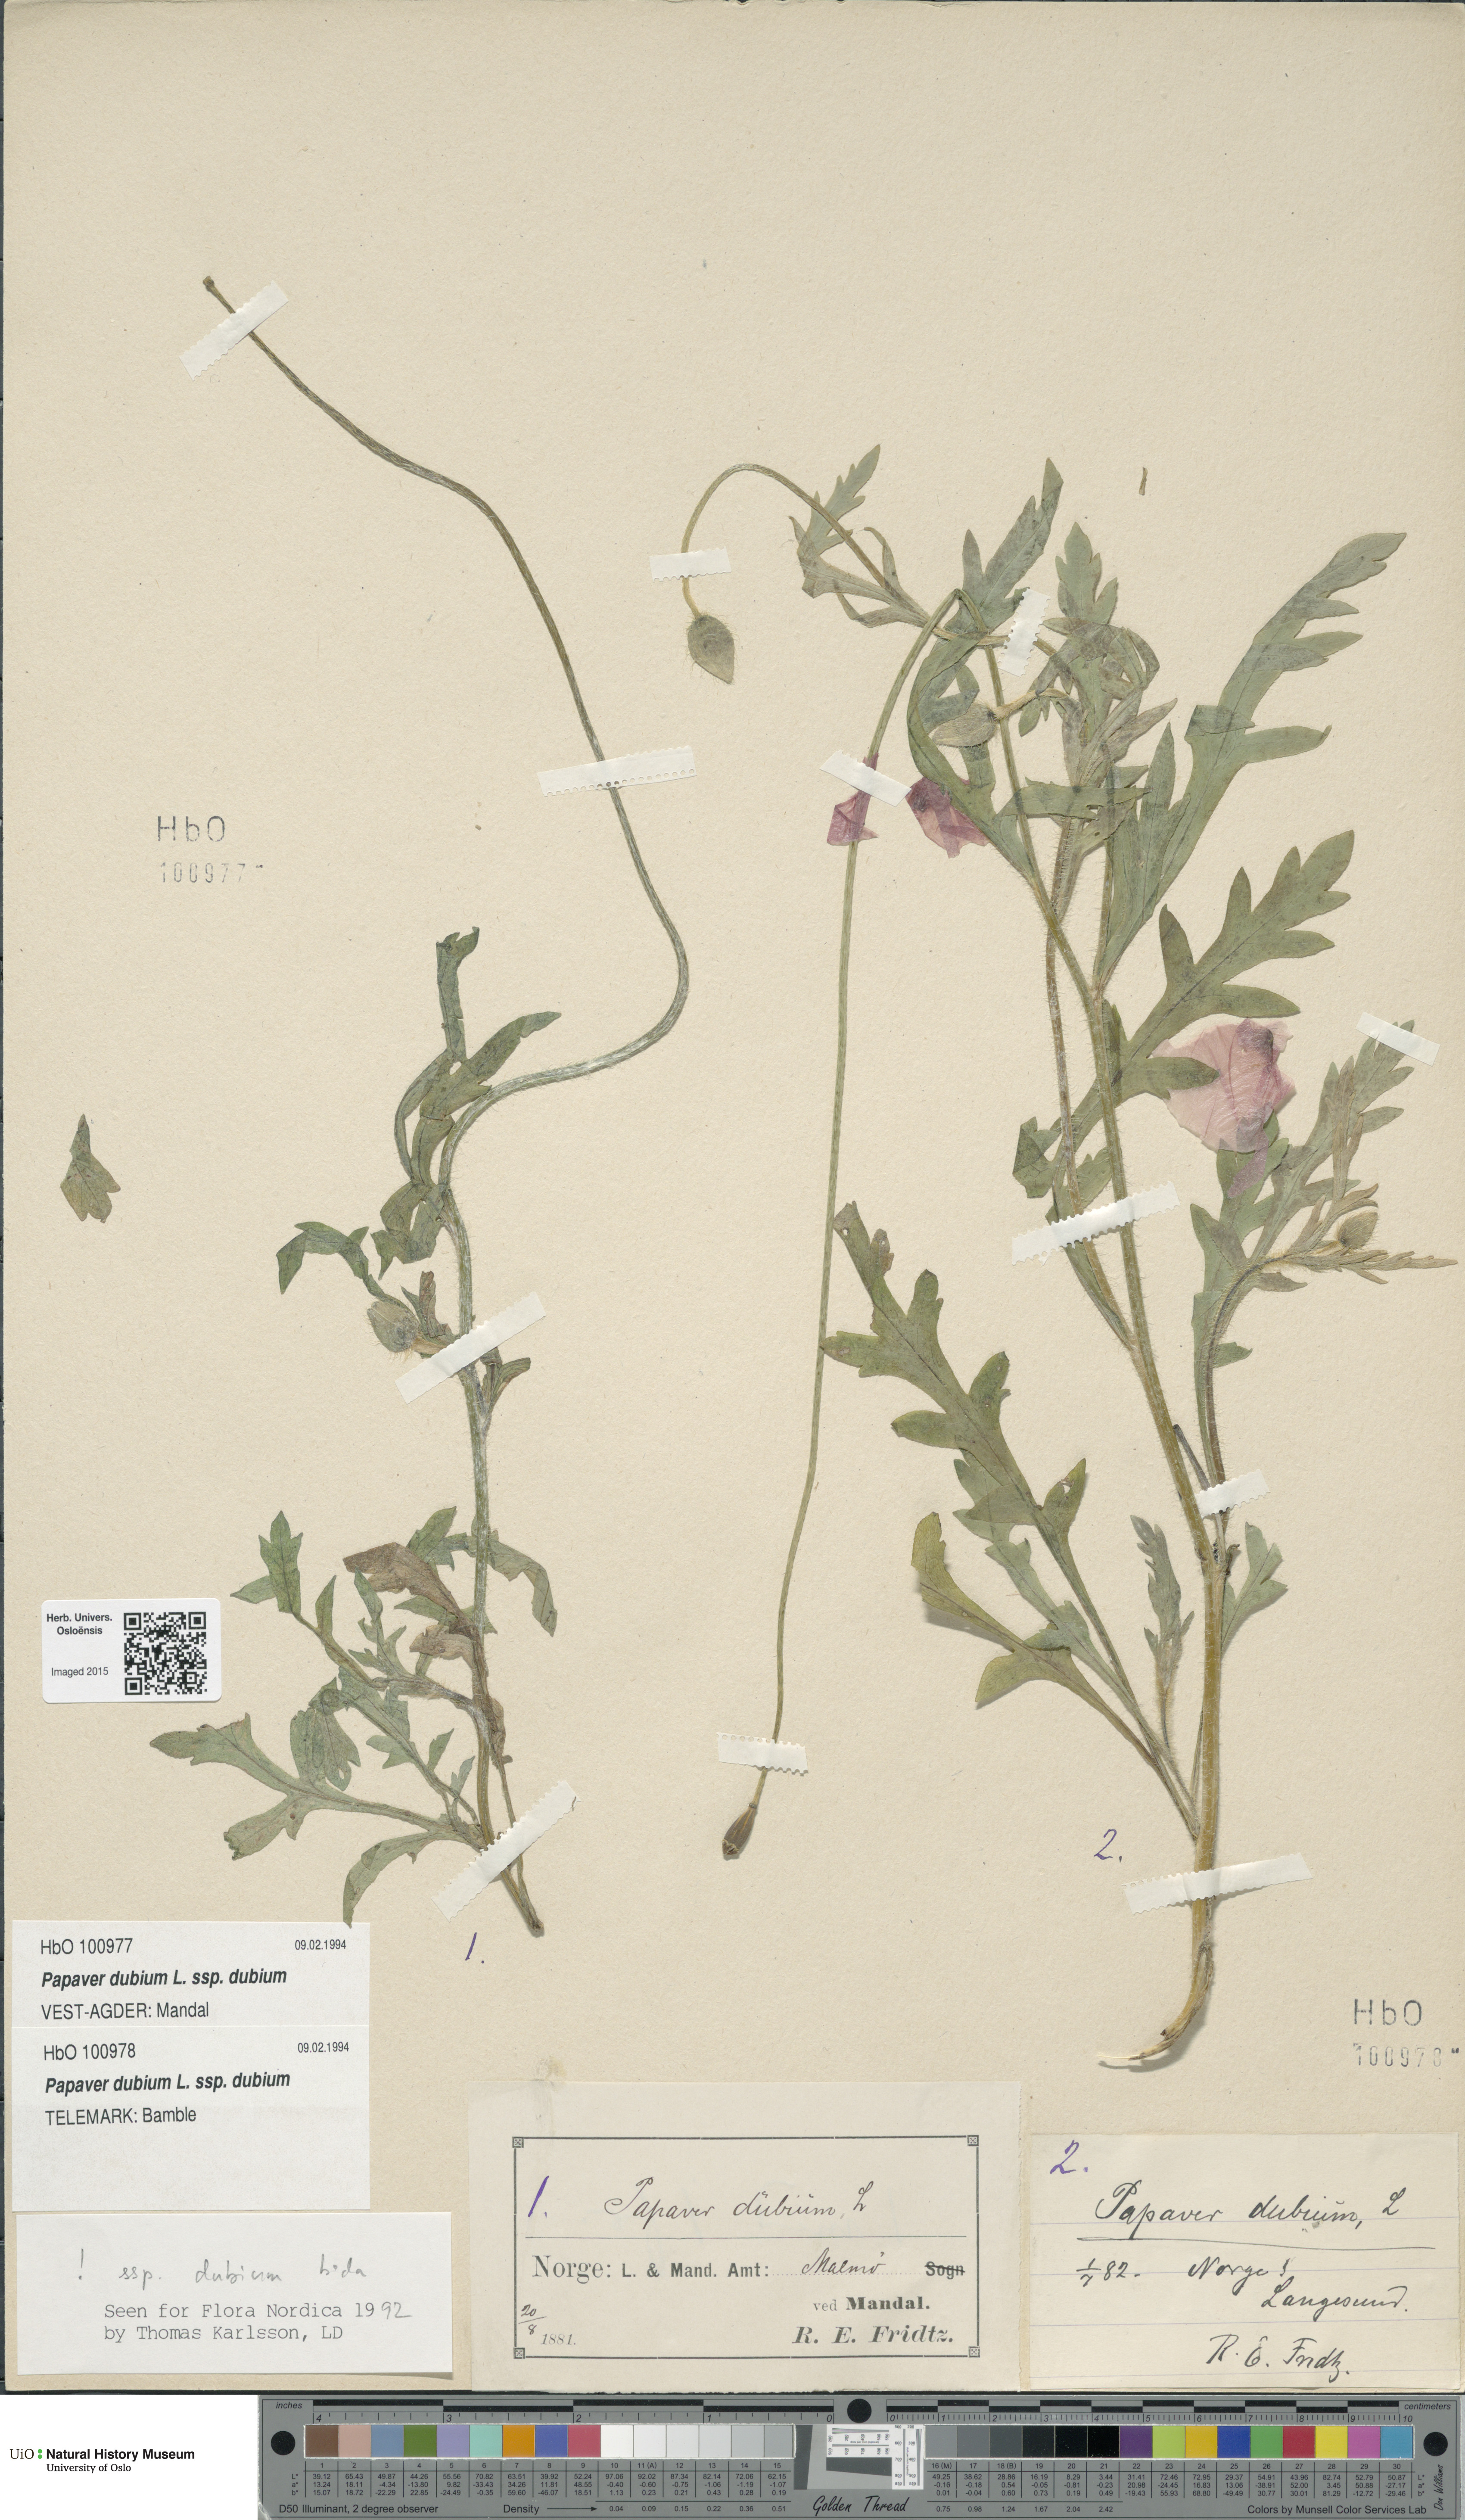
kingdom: Plantae
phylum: Tracheophyta
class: Magnoliopsida
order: Ranunculales
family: Papaveraceae
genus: Papaver
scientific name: Papaver dubium
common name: Long-headed poppy
